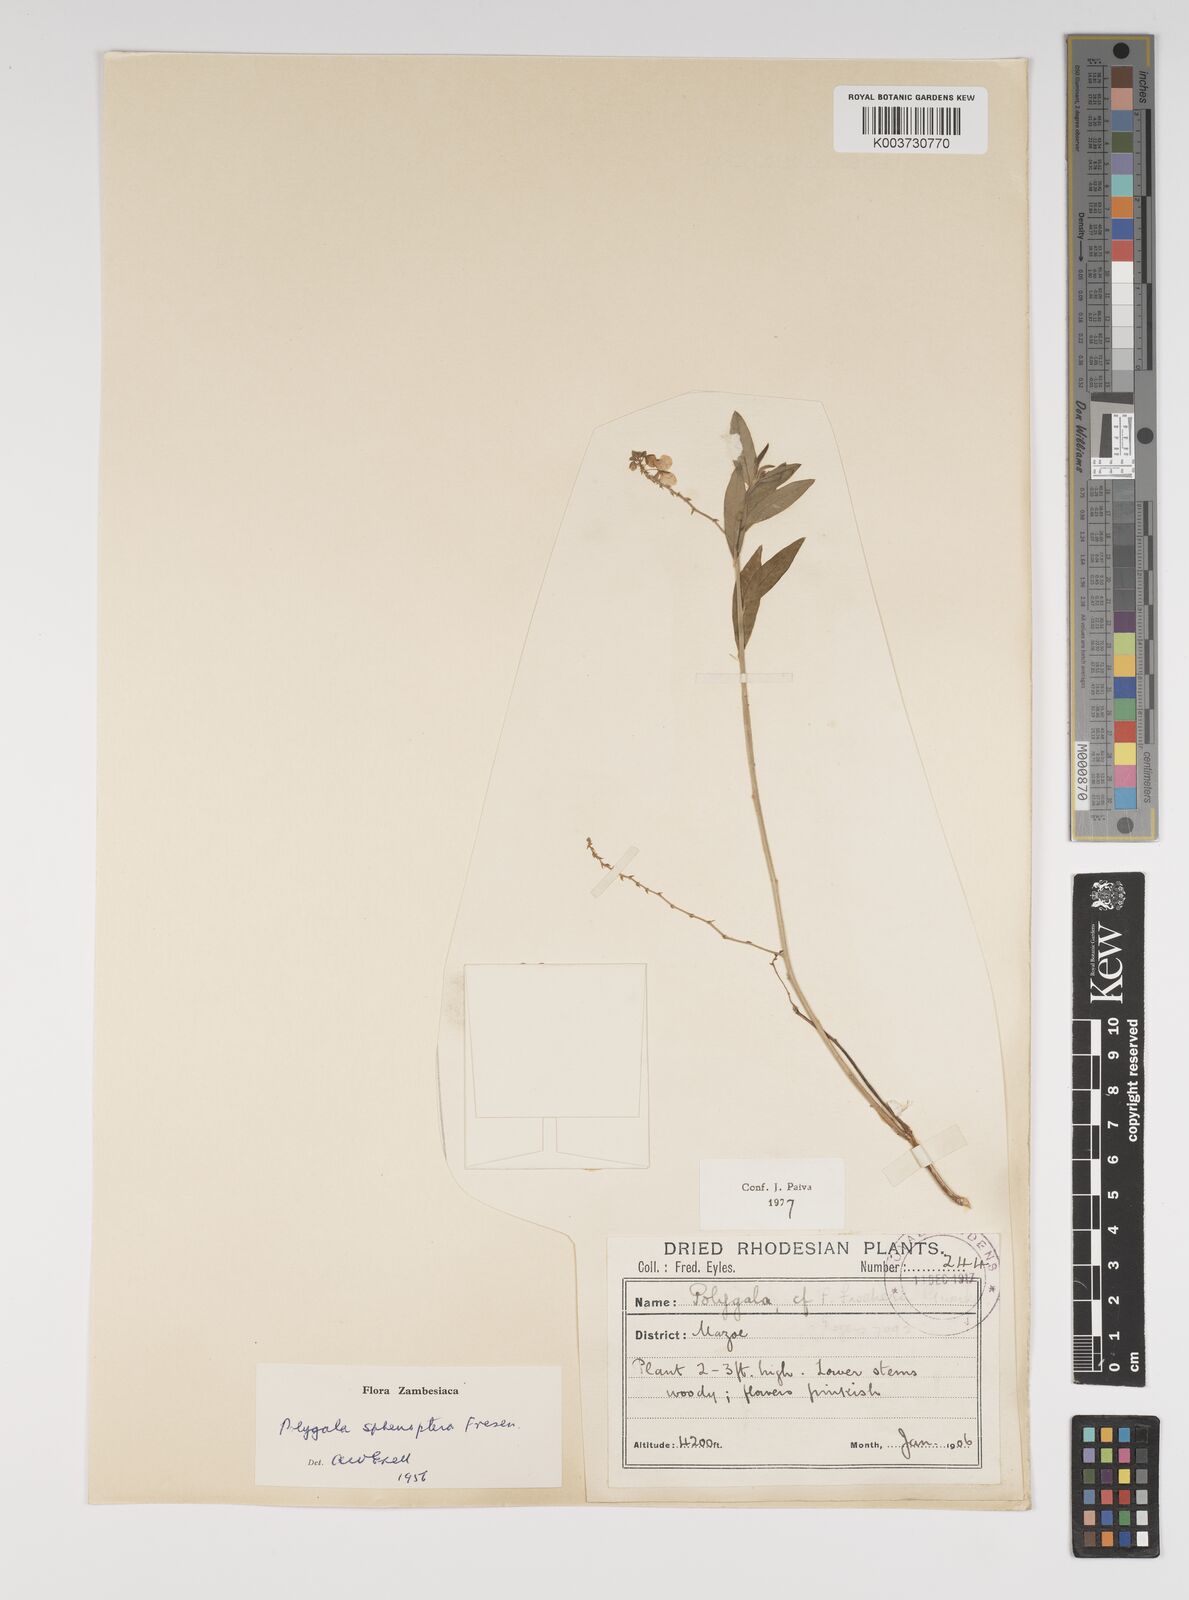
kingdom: Plantae
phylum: Tracheophyta
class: Magnoliopsida
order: Fabales
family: Polygalaceae
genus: Polygala
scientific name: Polygala sphenoptera
